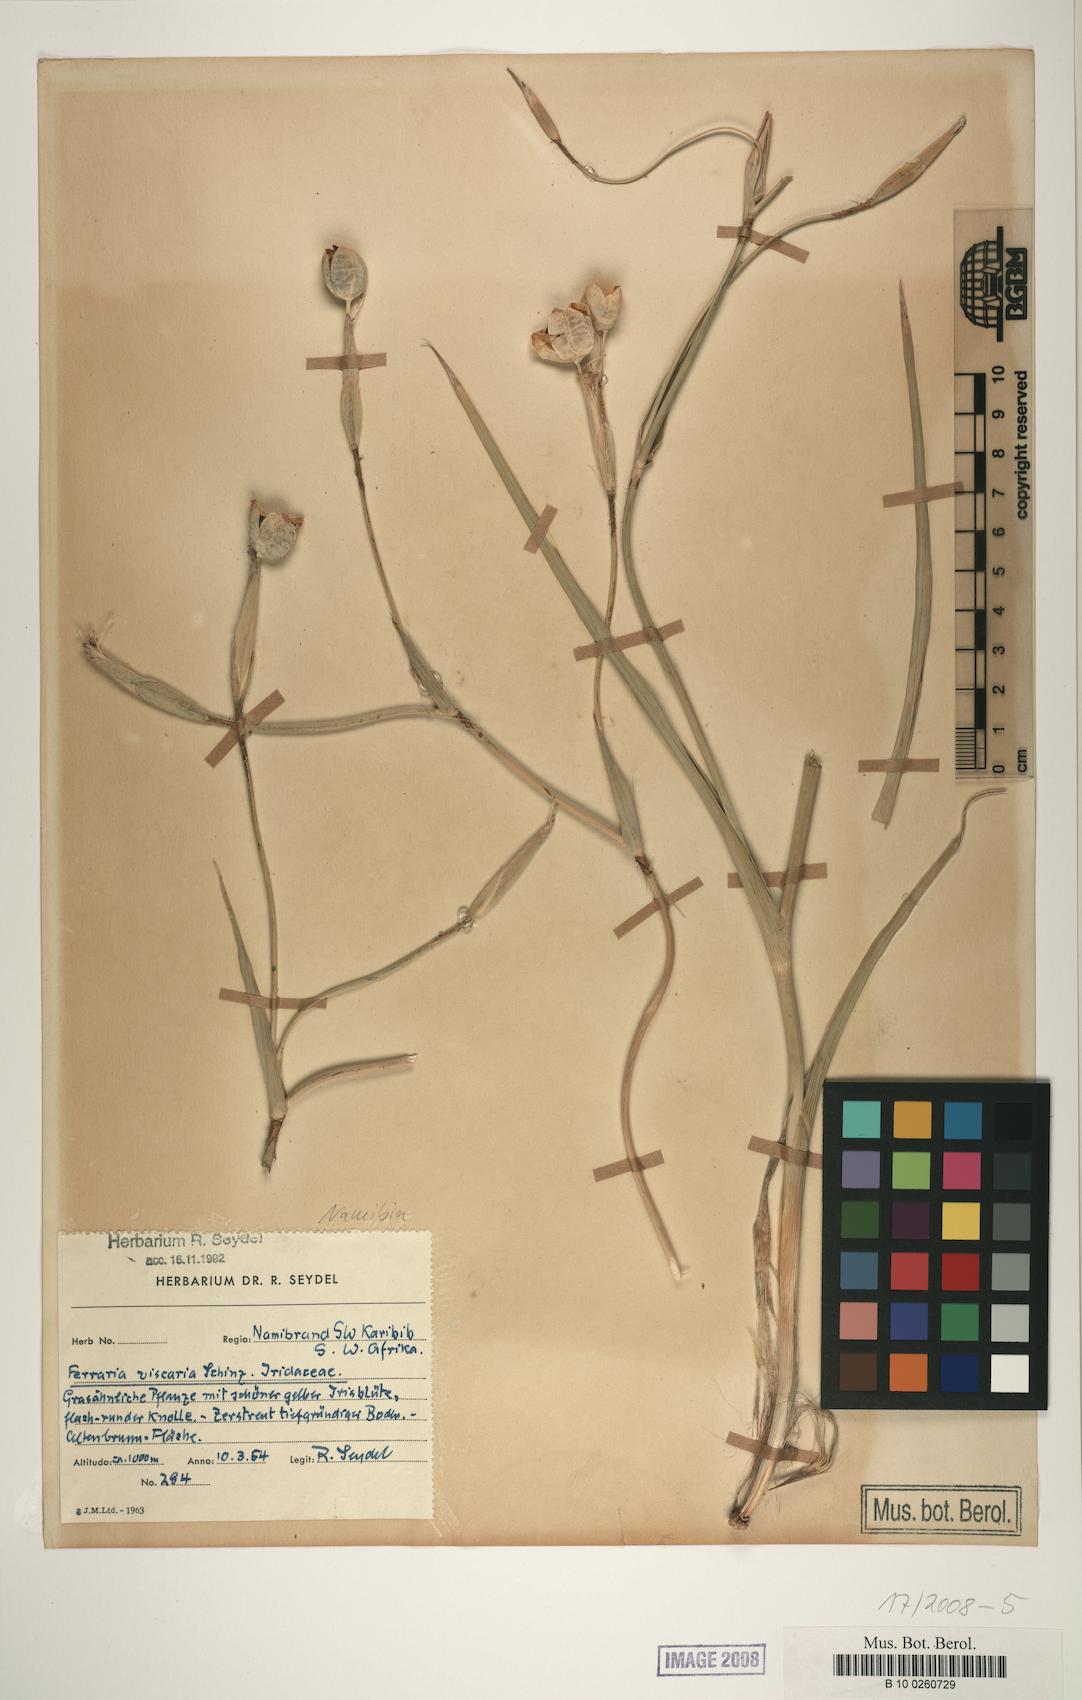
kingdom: Plantae
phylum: Tracheophyta
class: Liliopsida
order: Asparagales
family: Iridaceae
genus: Ferraria
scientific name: Ferraria glutinosa
